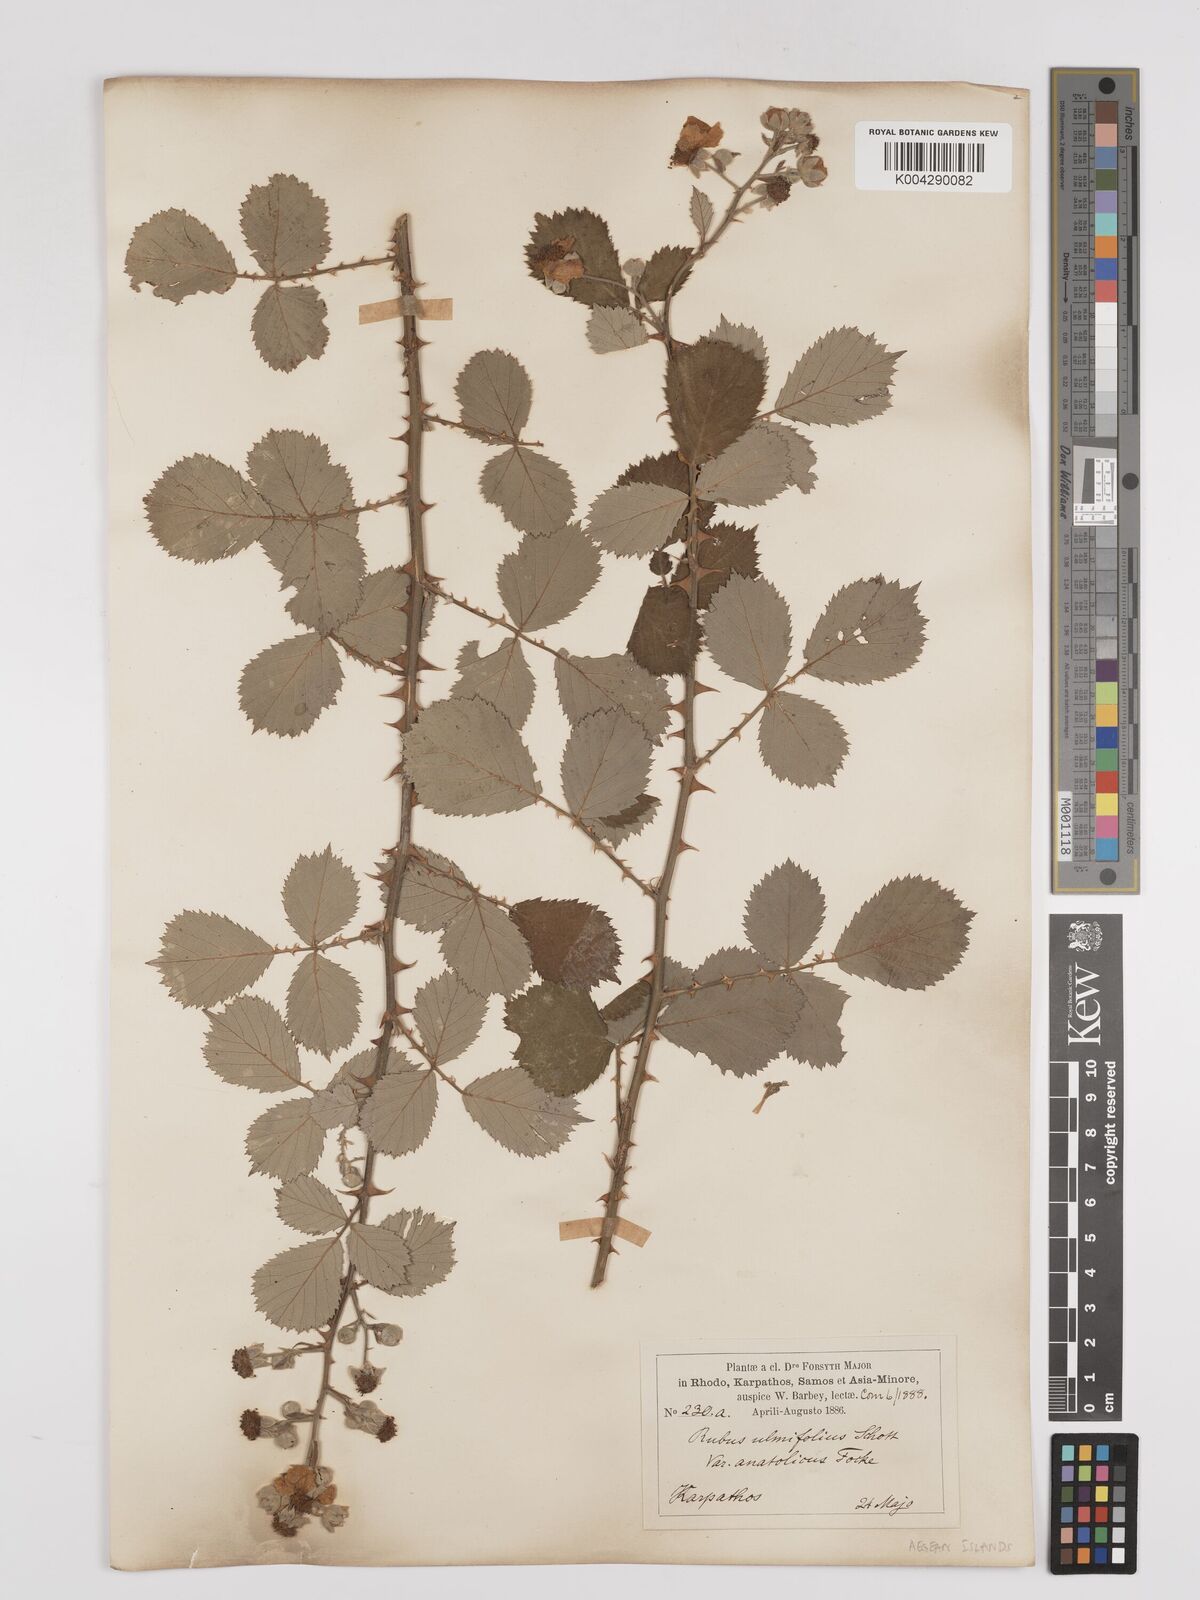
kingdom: Plantae
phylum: Tracheophyta
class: Magnoliopsida
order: Rosales
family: Rosaceae
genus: Rubus
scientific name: Rubus sanctus
